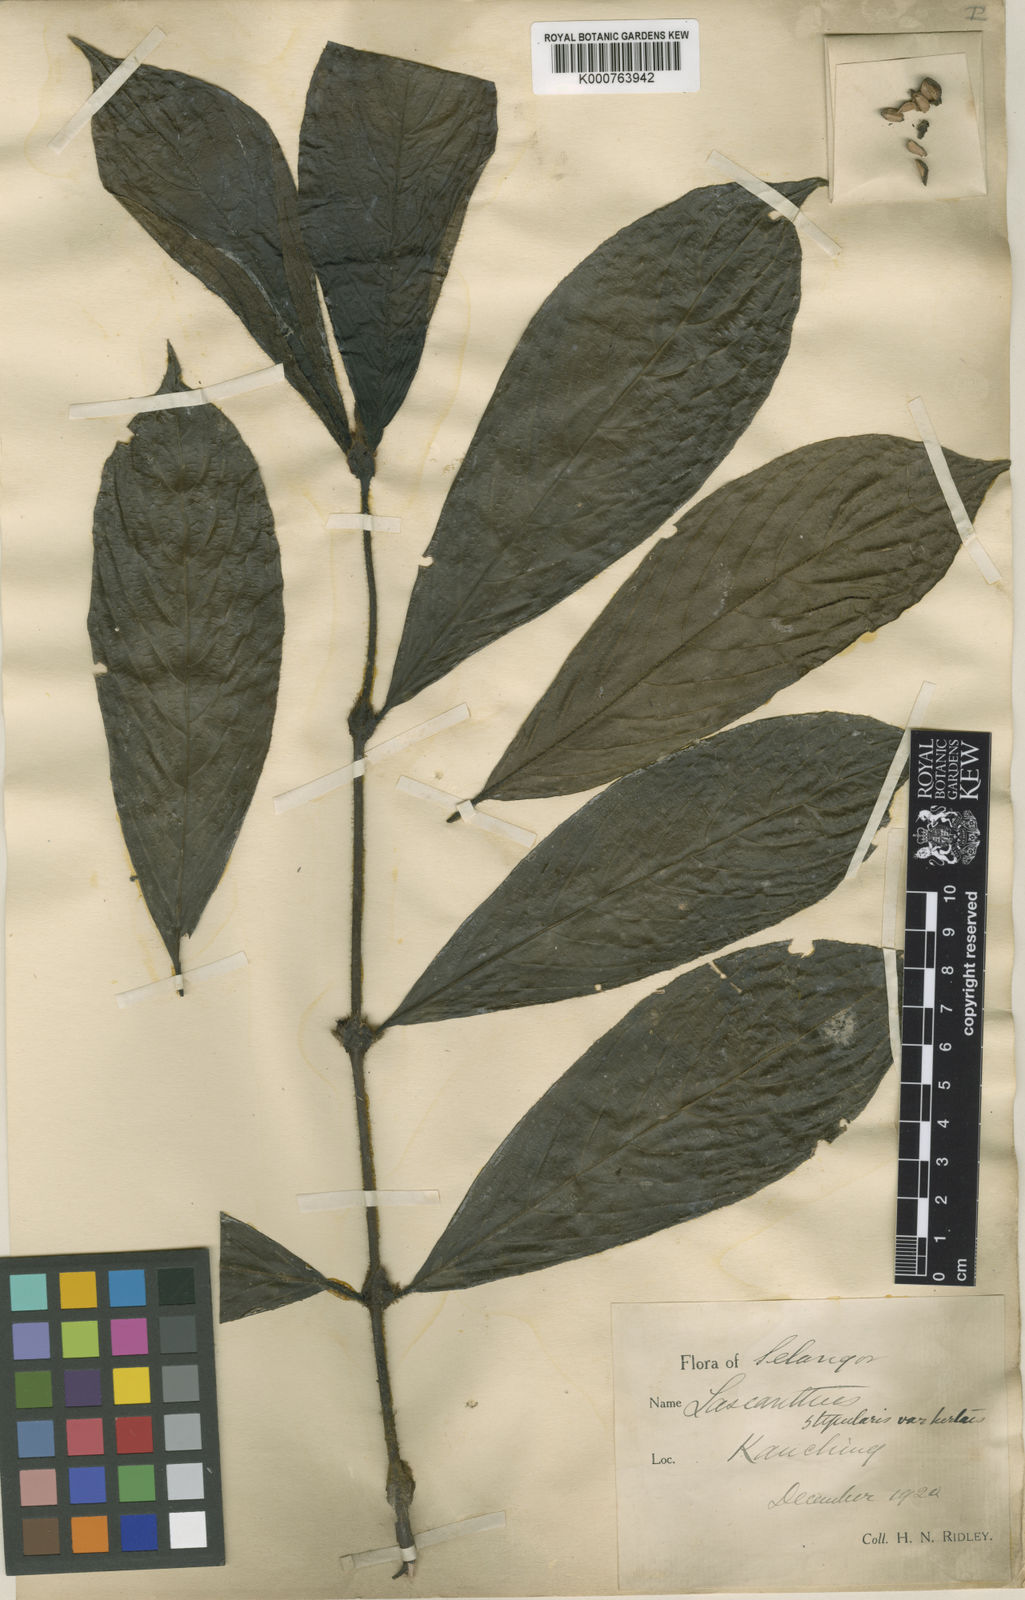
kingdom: Plantae
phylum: Tracheophyta
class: Magnoliopsida
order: Gentianales
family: Rubiaceae
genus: Lasianthus
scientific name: Lasianthus stipularis
